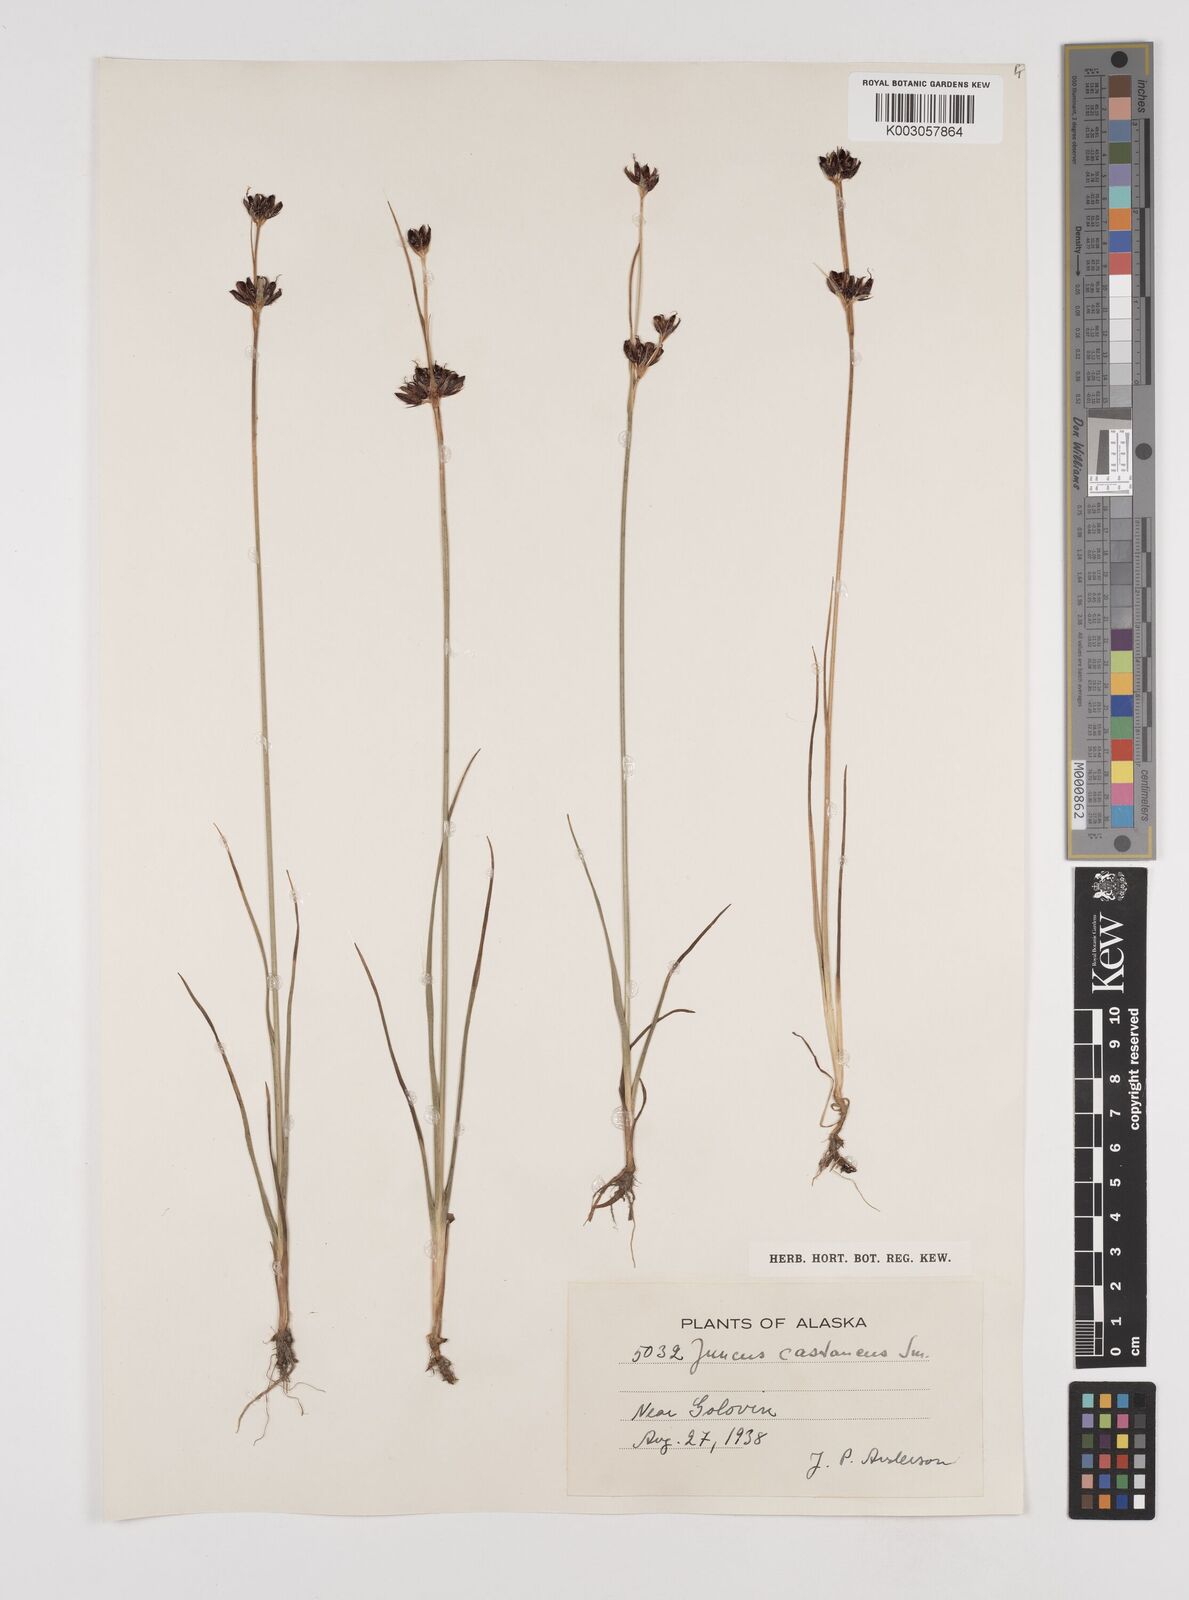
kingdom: Plantae
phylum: Tracheophyta
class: Liliopsida
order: Poales
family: Juncaceae
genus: Juncus
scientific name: Juncus castaneus
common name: Chestnut rush
